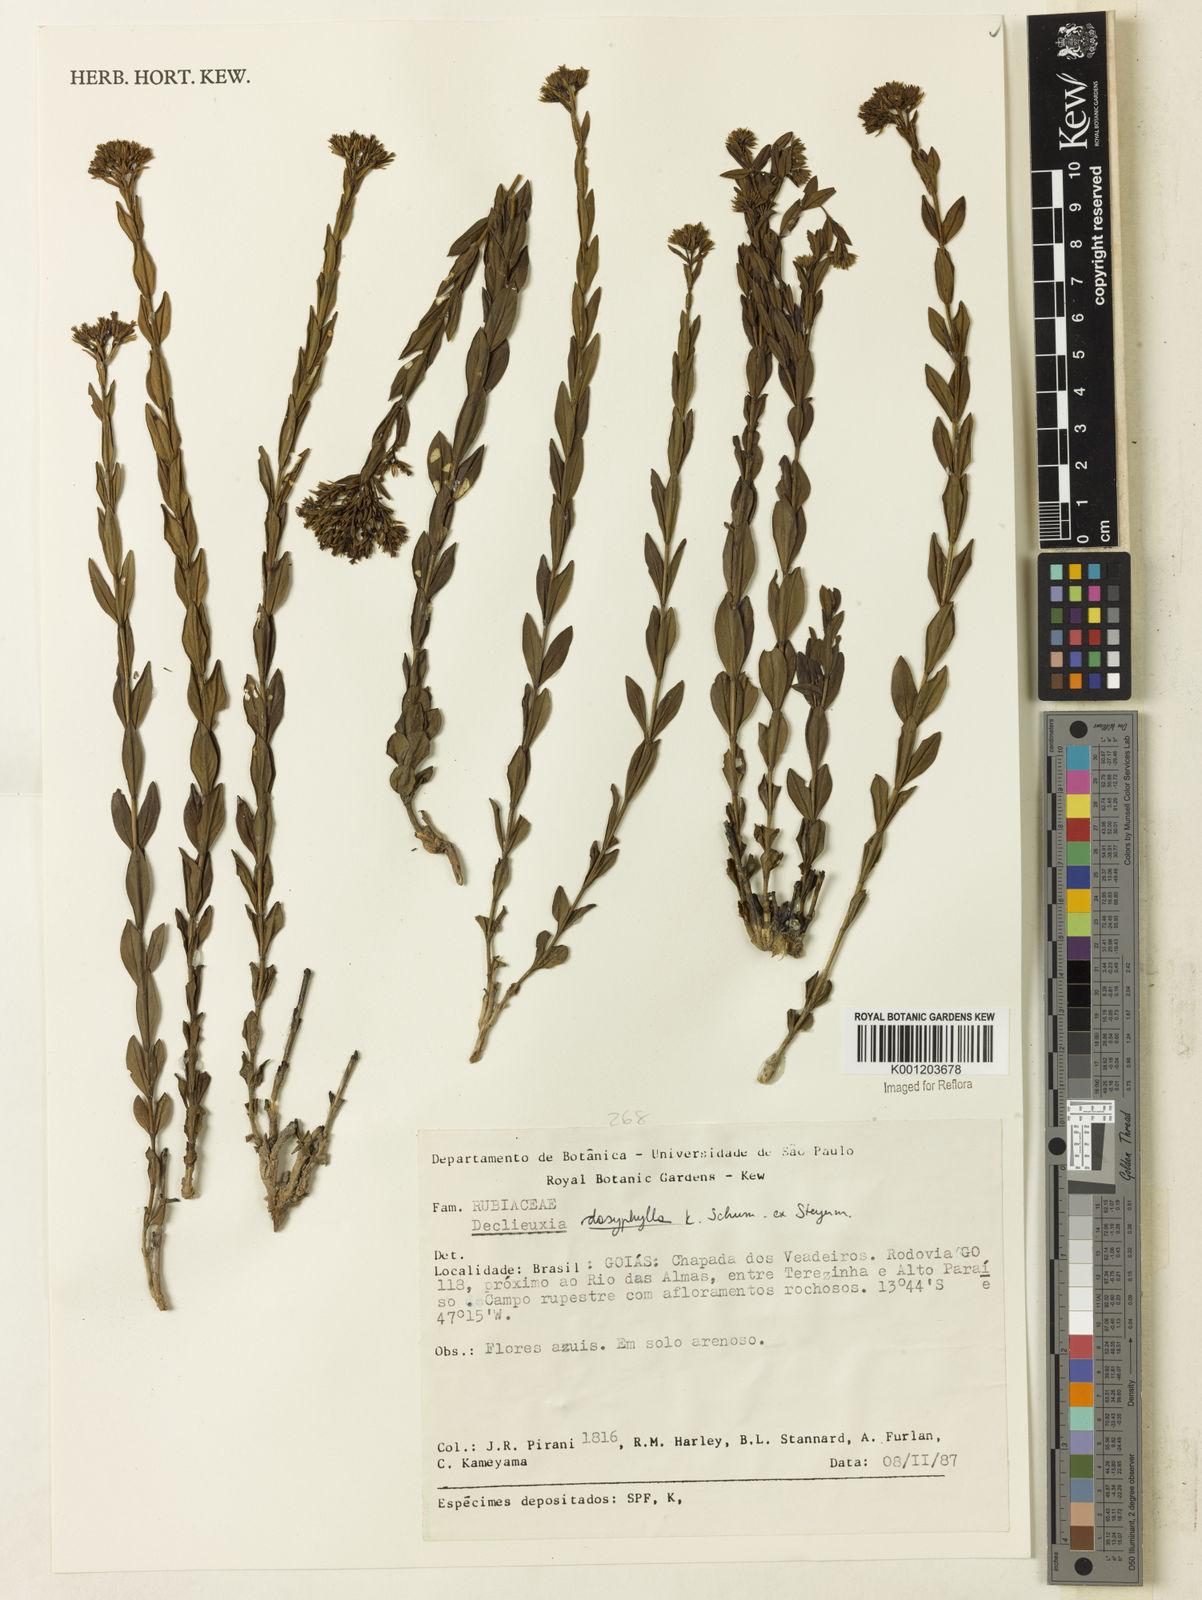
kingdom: Plantae
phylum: Tracheophyta
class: Magnoliopsida
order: Gentianales
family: Rubiaceae
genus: Declieuxia
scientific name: Declieuxia dasyphylla
